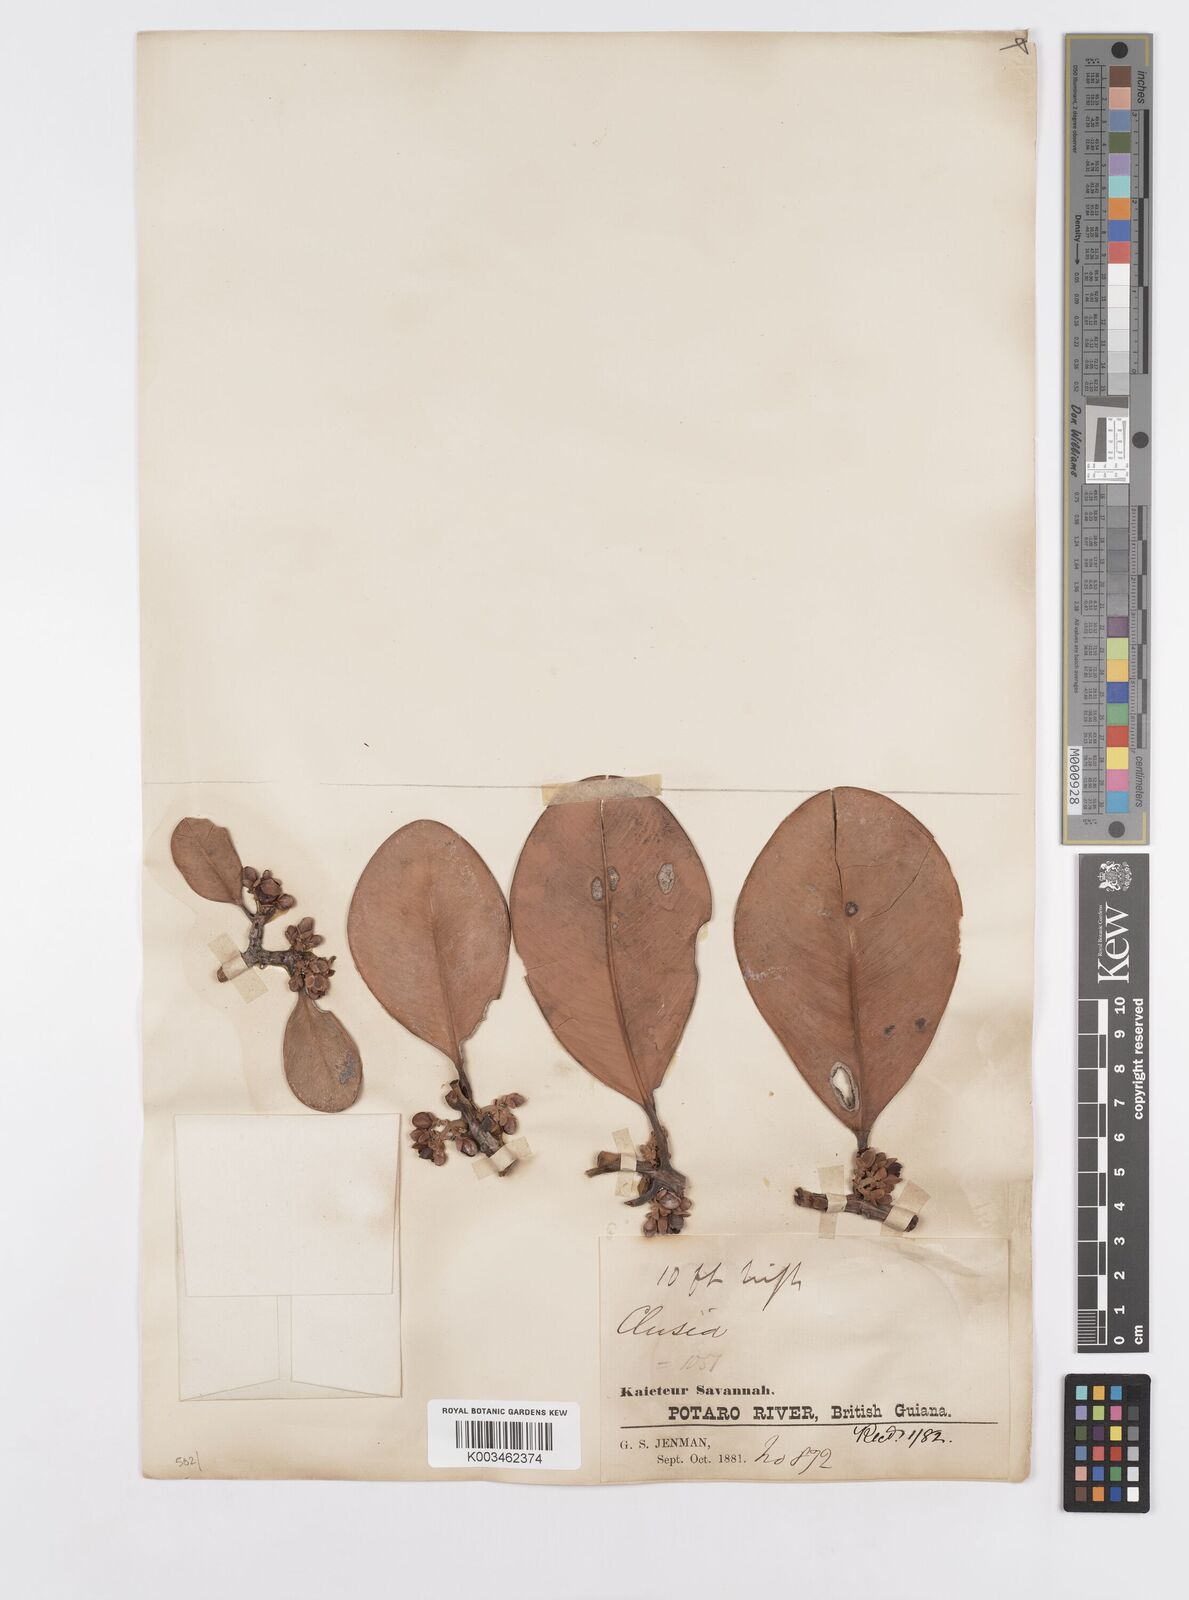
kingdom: Plantae
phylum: Tracheophyta
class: Magnoliopsida
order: Malpighiales
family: Clusiaceae
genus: Clusia
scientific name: Clusia
